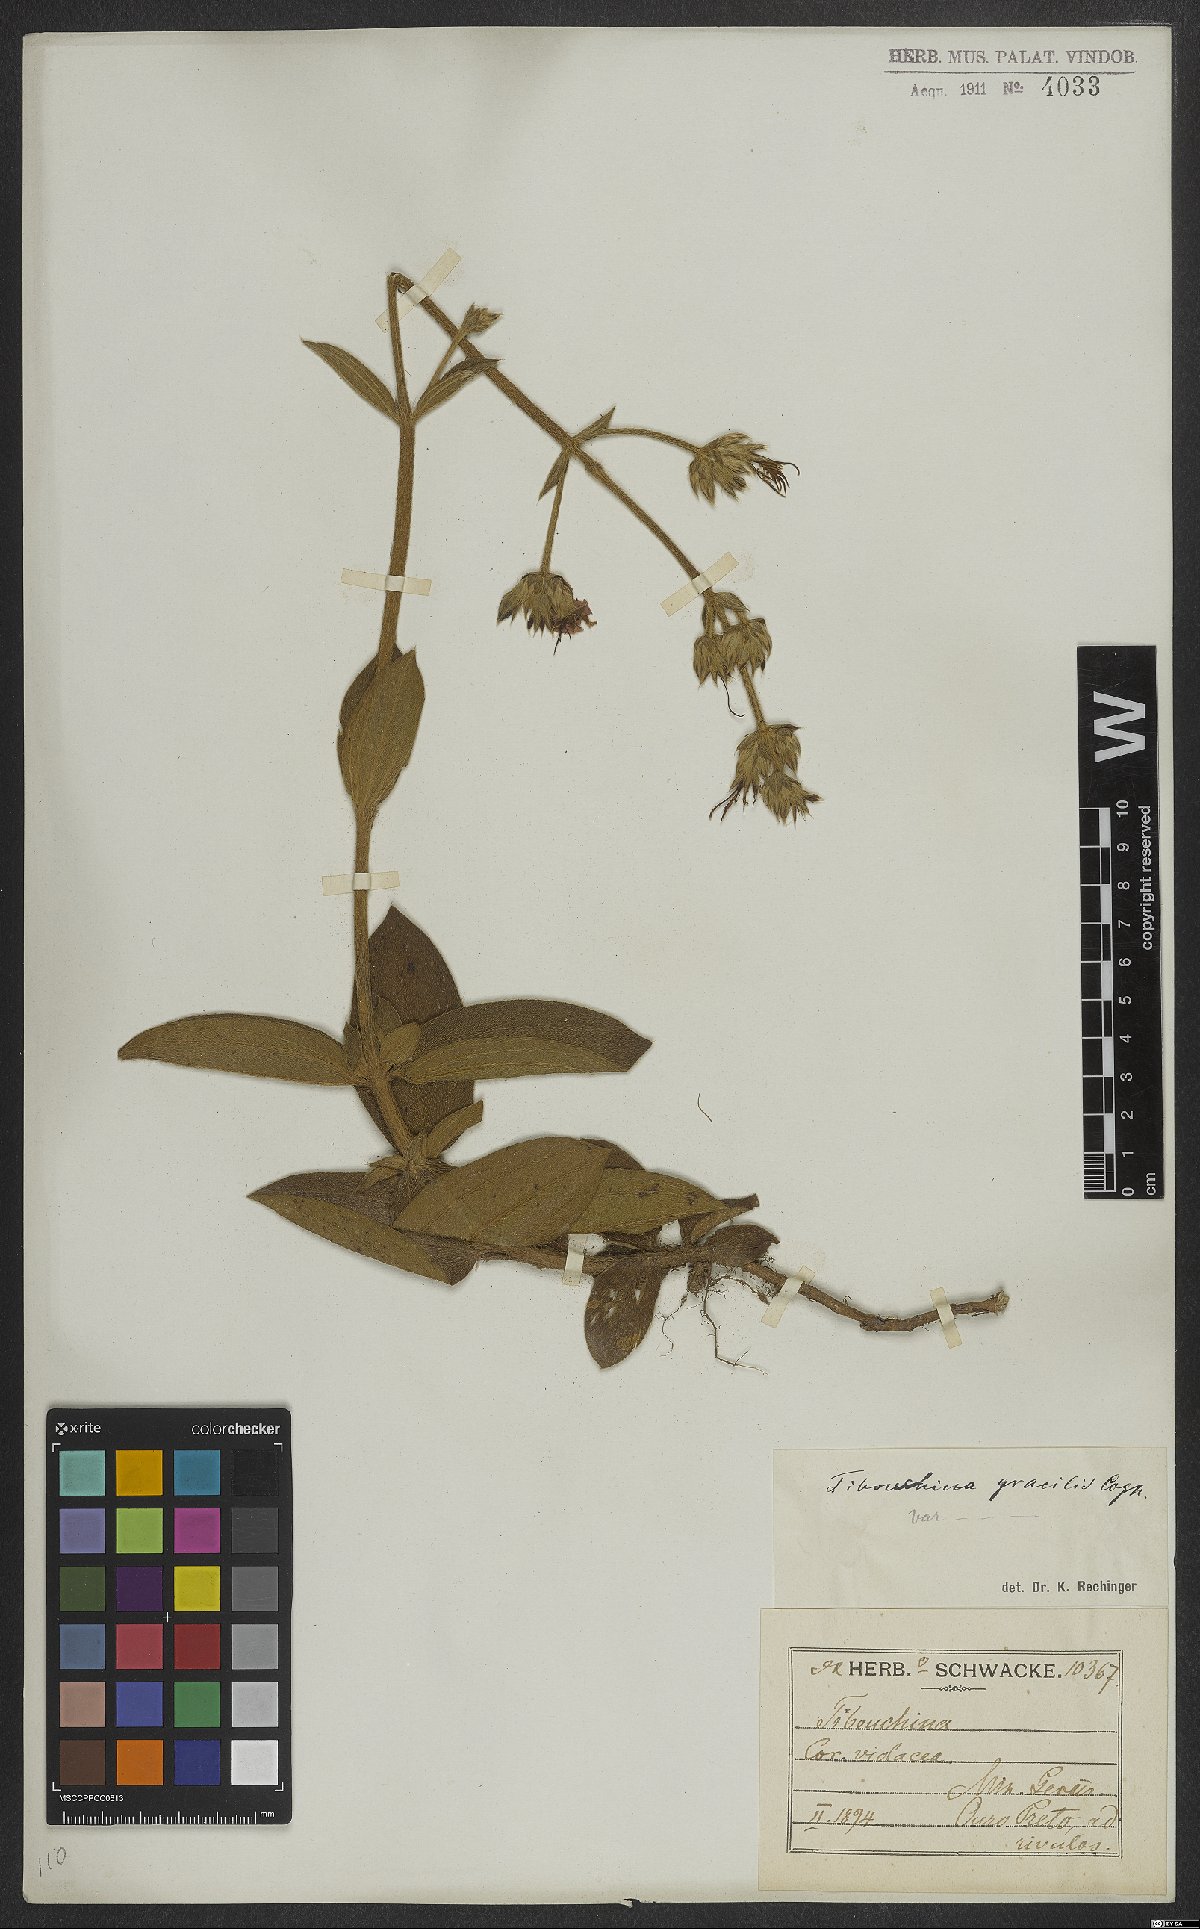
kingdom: Plantae
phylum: Tracheophyta
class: Magnoliopsida
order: Myrtales
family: Melastomataceae
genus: Chaetogastra
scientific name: Chaetogastra gracilis
